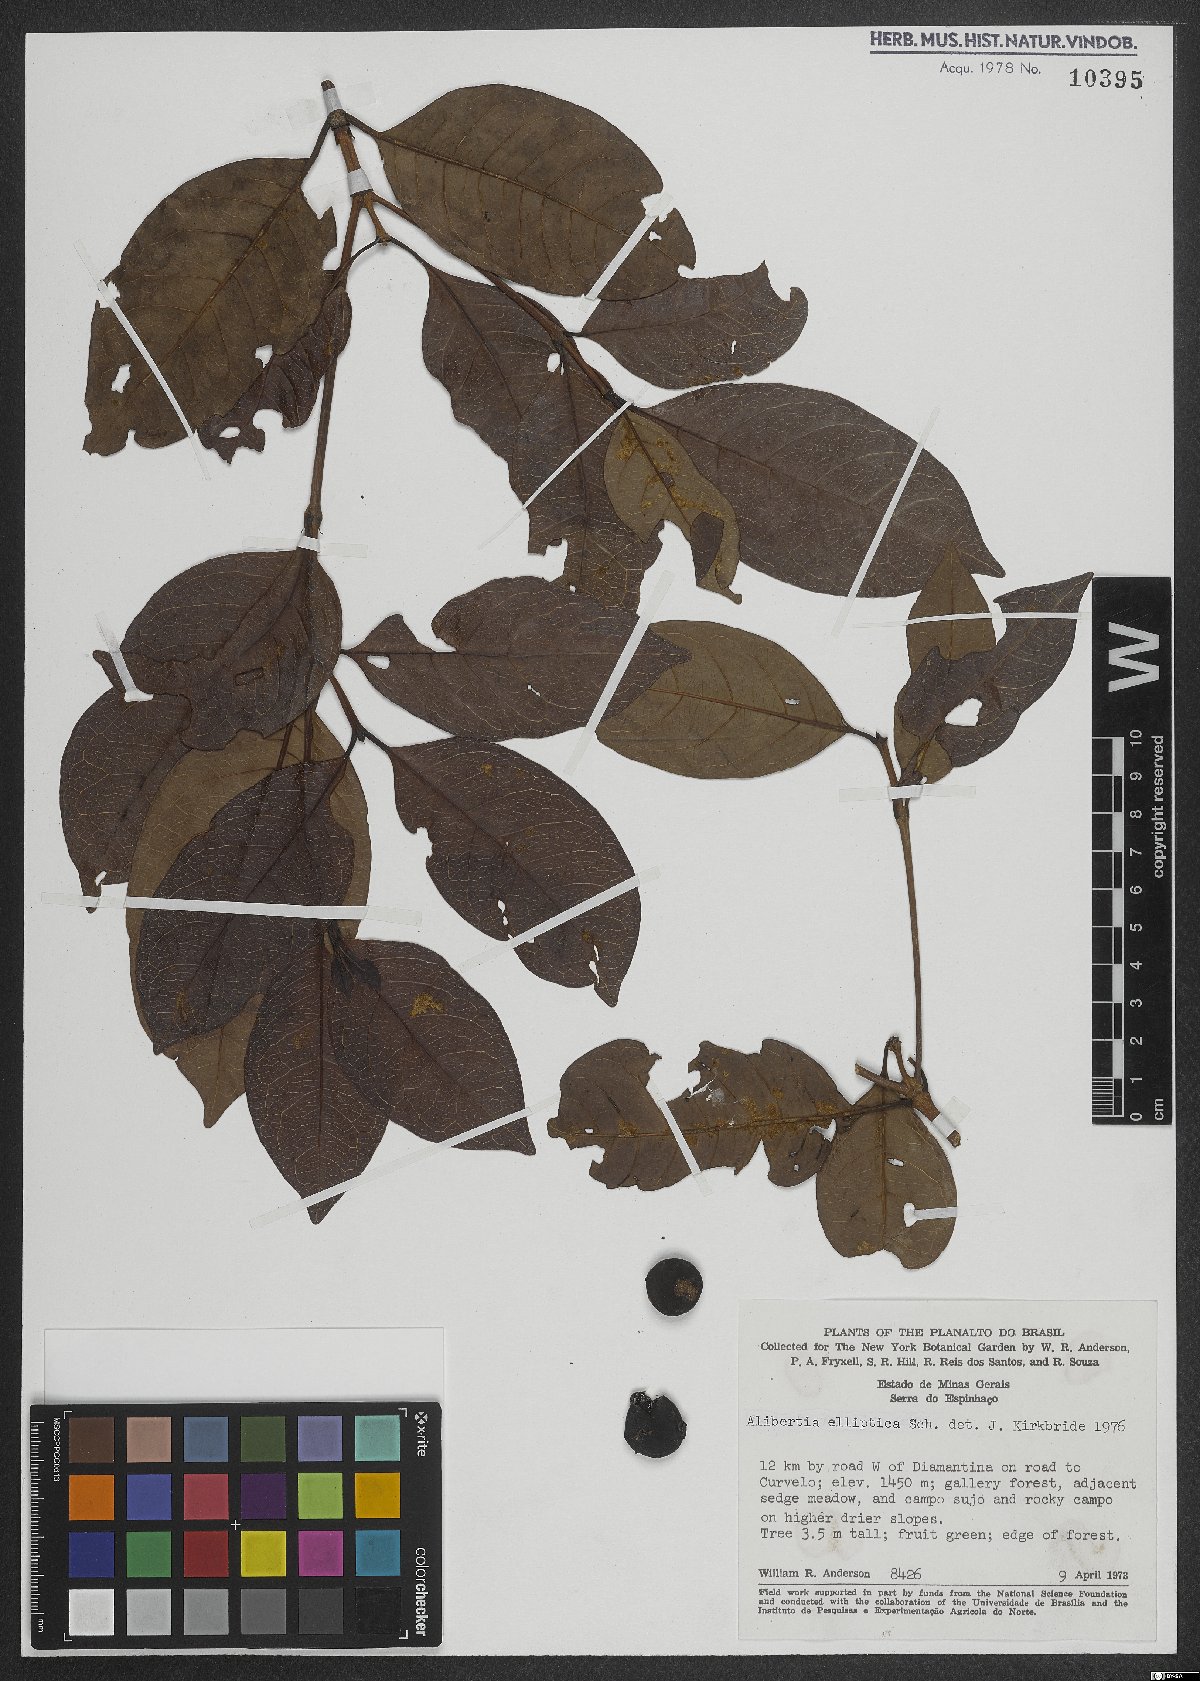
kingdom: Plantae
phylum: Tracheophyta
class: Magnoliopsida
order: Gentianales
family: Rubiaceae
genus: Cordiera
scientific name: Cordiera elliptica
